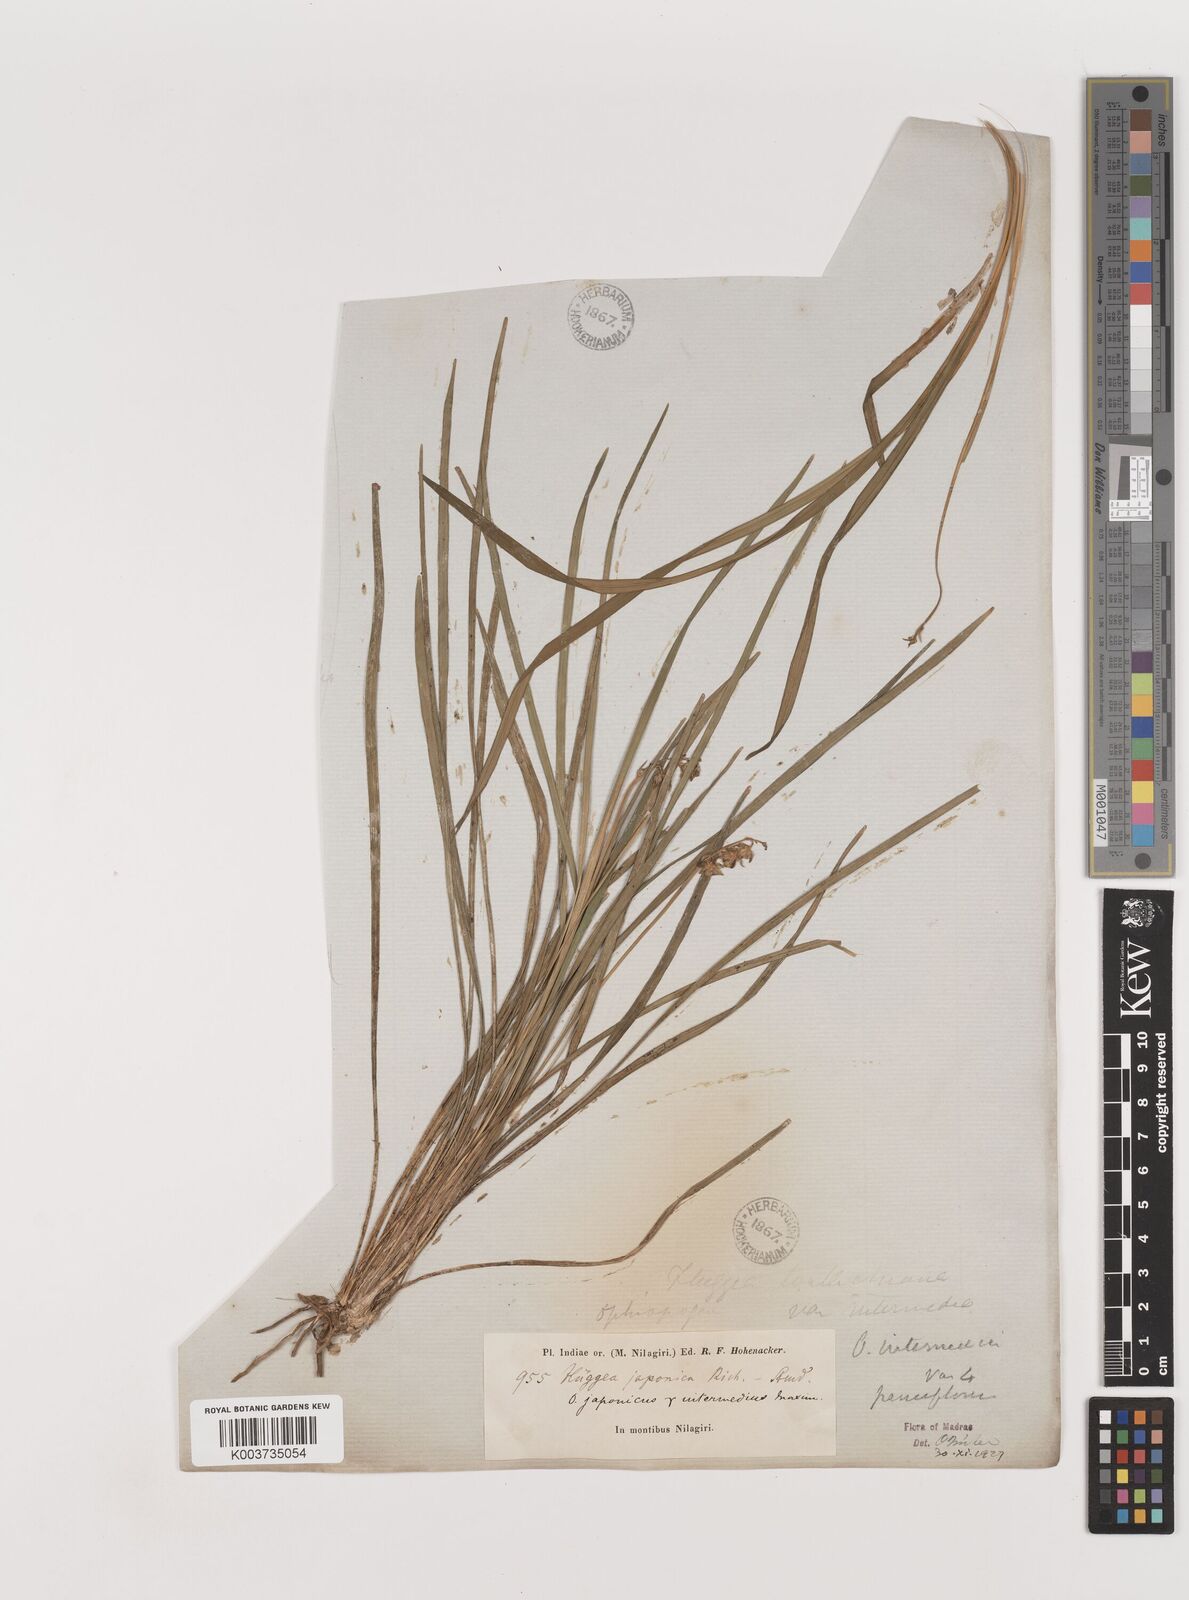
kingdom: Plantae
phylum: Tracheophyta
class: Liliopsida
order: Asparagales
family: Asparagaceae
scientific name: Asparagaceae
